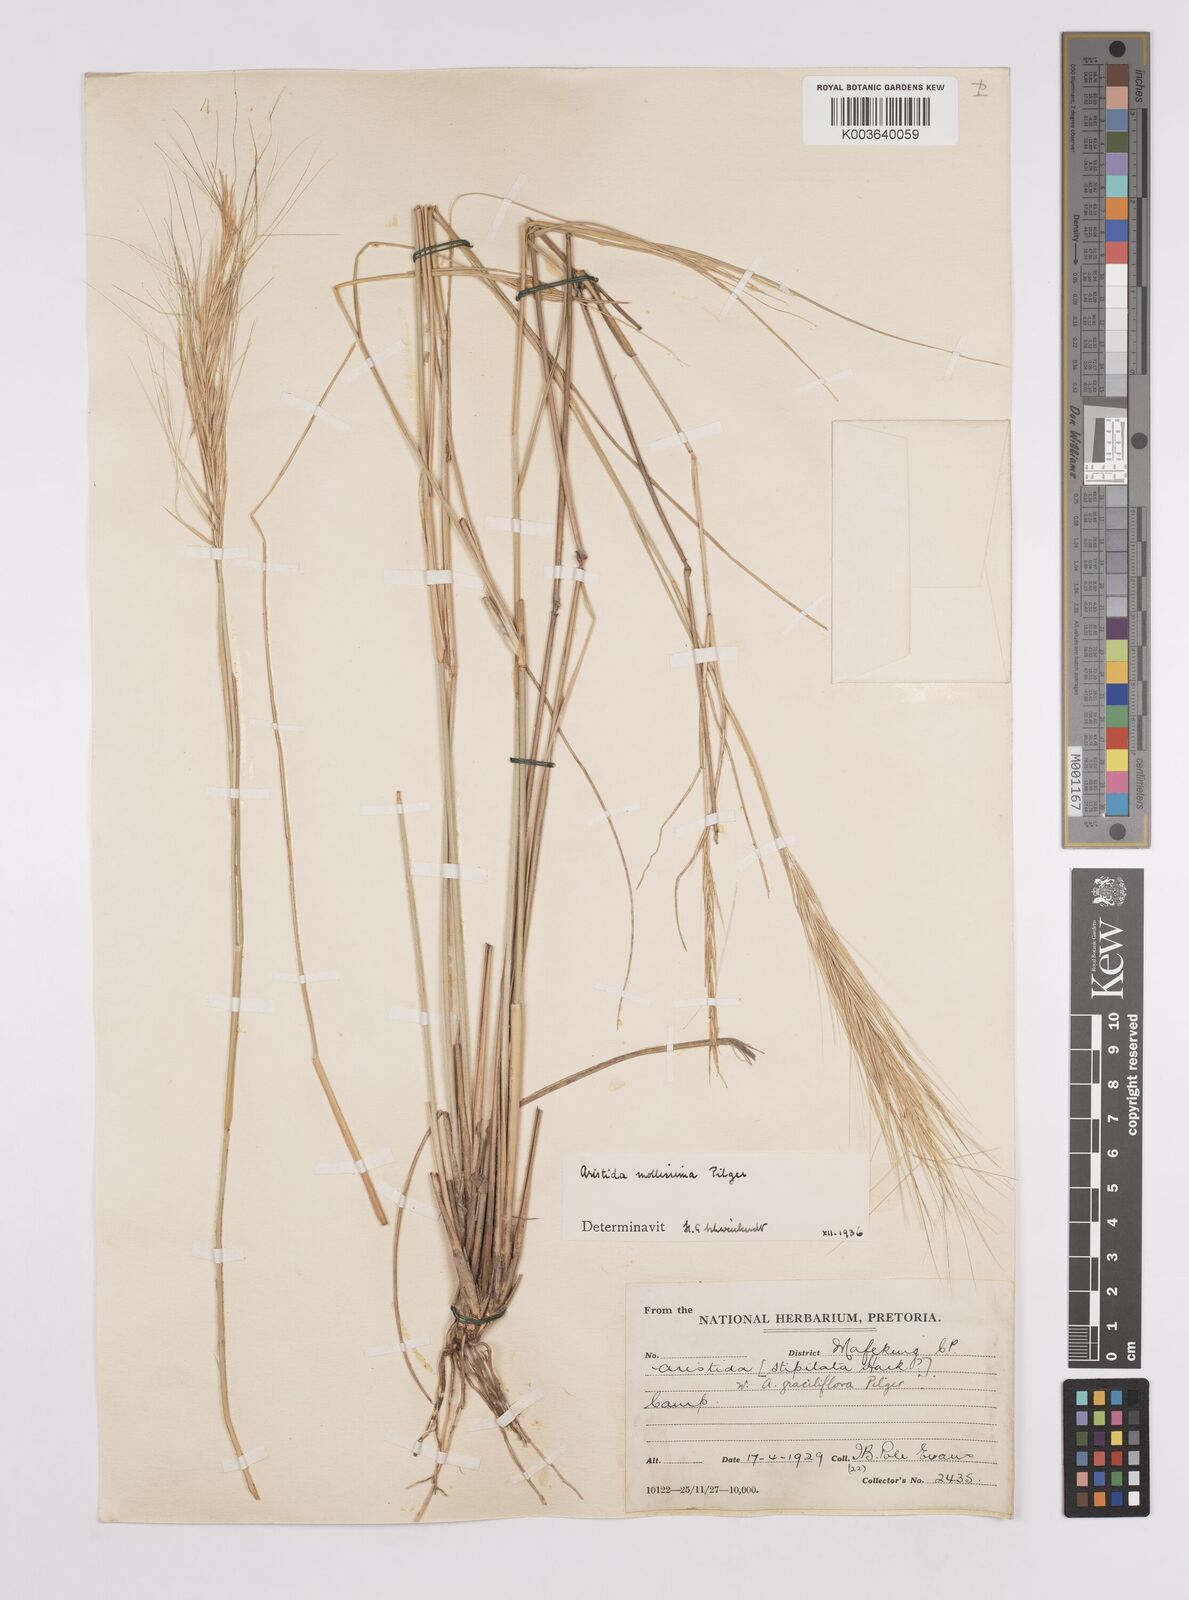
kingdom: Plantae
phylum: Tracheophyta
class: Liliopsida
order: Poales
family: Poaceae
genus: Aristida
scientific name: Aristida mollissima
